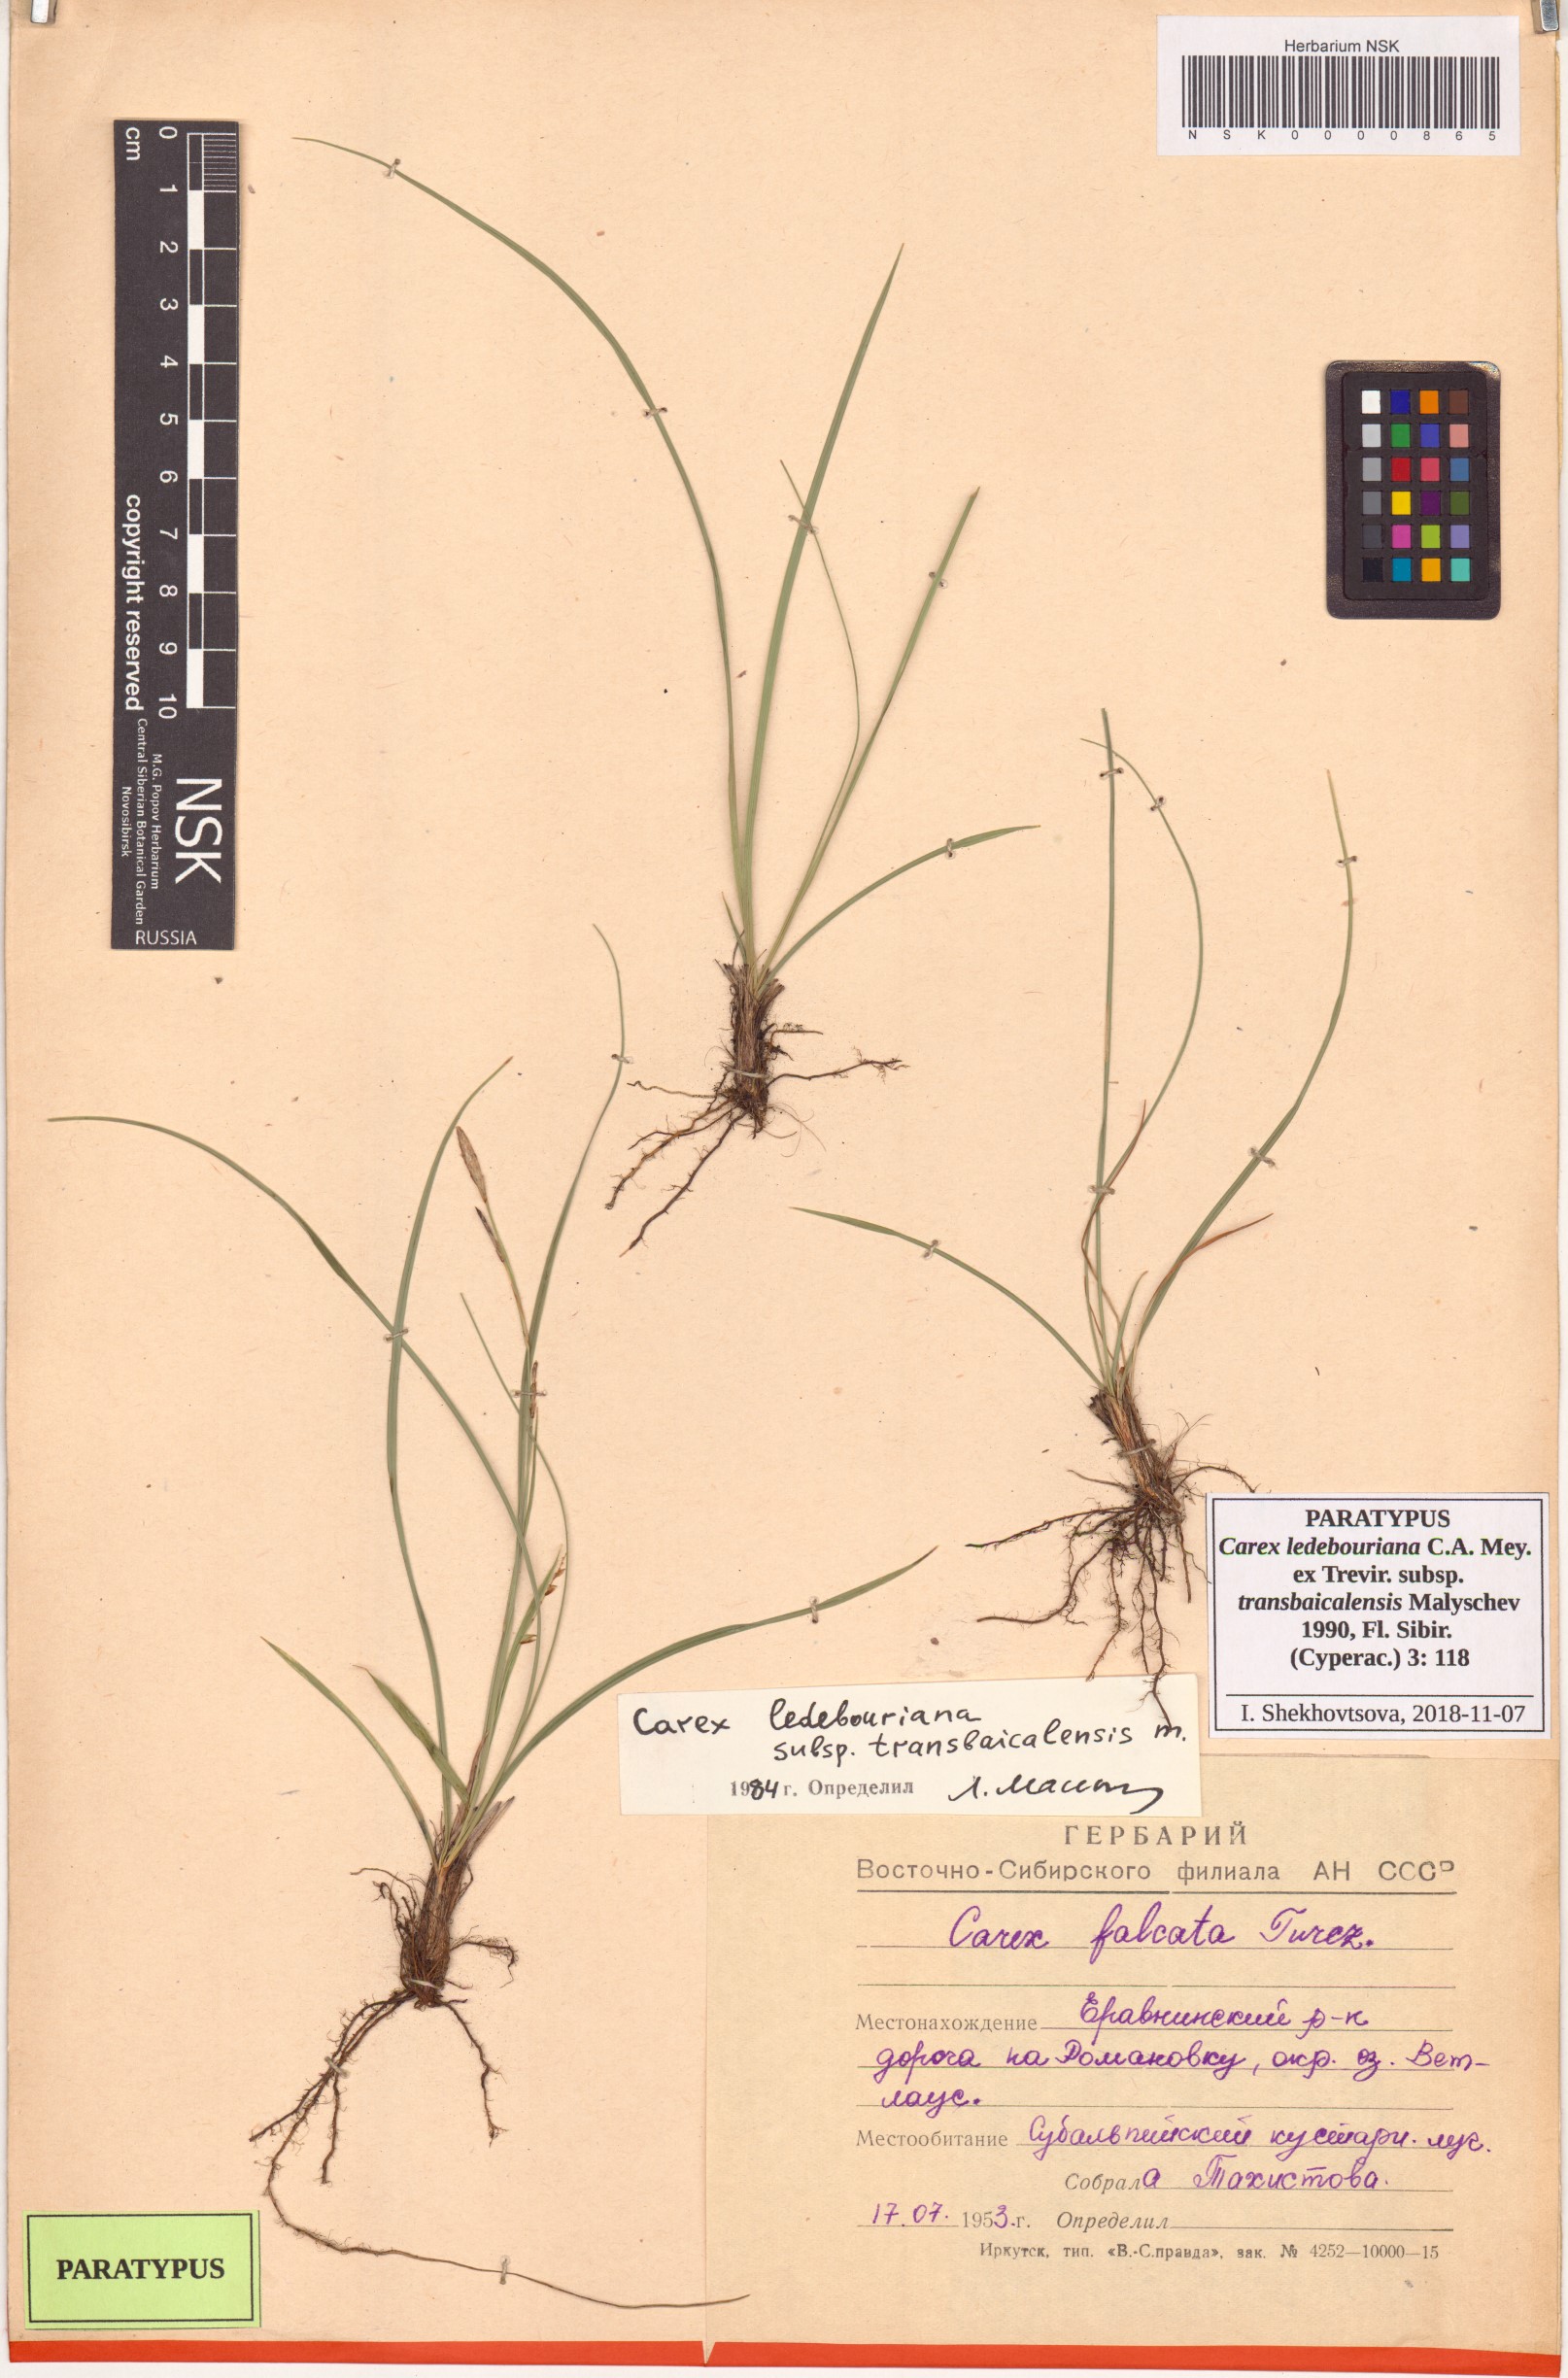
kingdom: Plantae
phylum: Tracheophyta
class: Liliopsida
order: Poales
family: Cyperaceae
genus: Carex
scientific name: Carex ledebouriana
